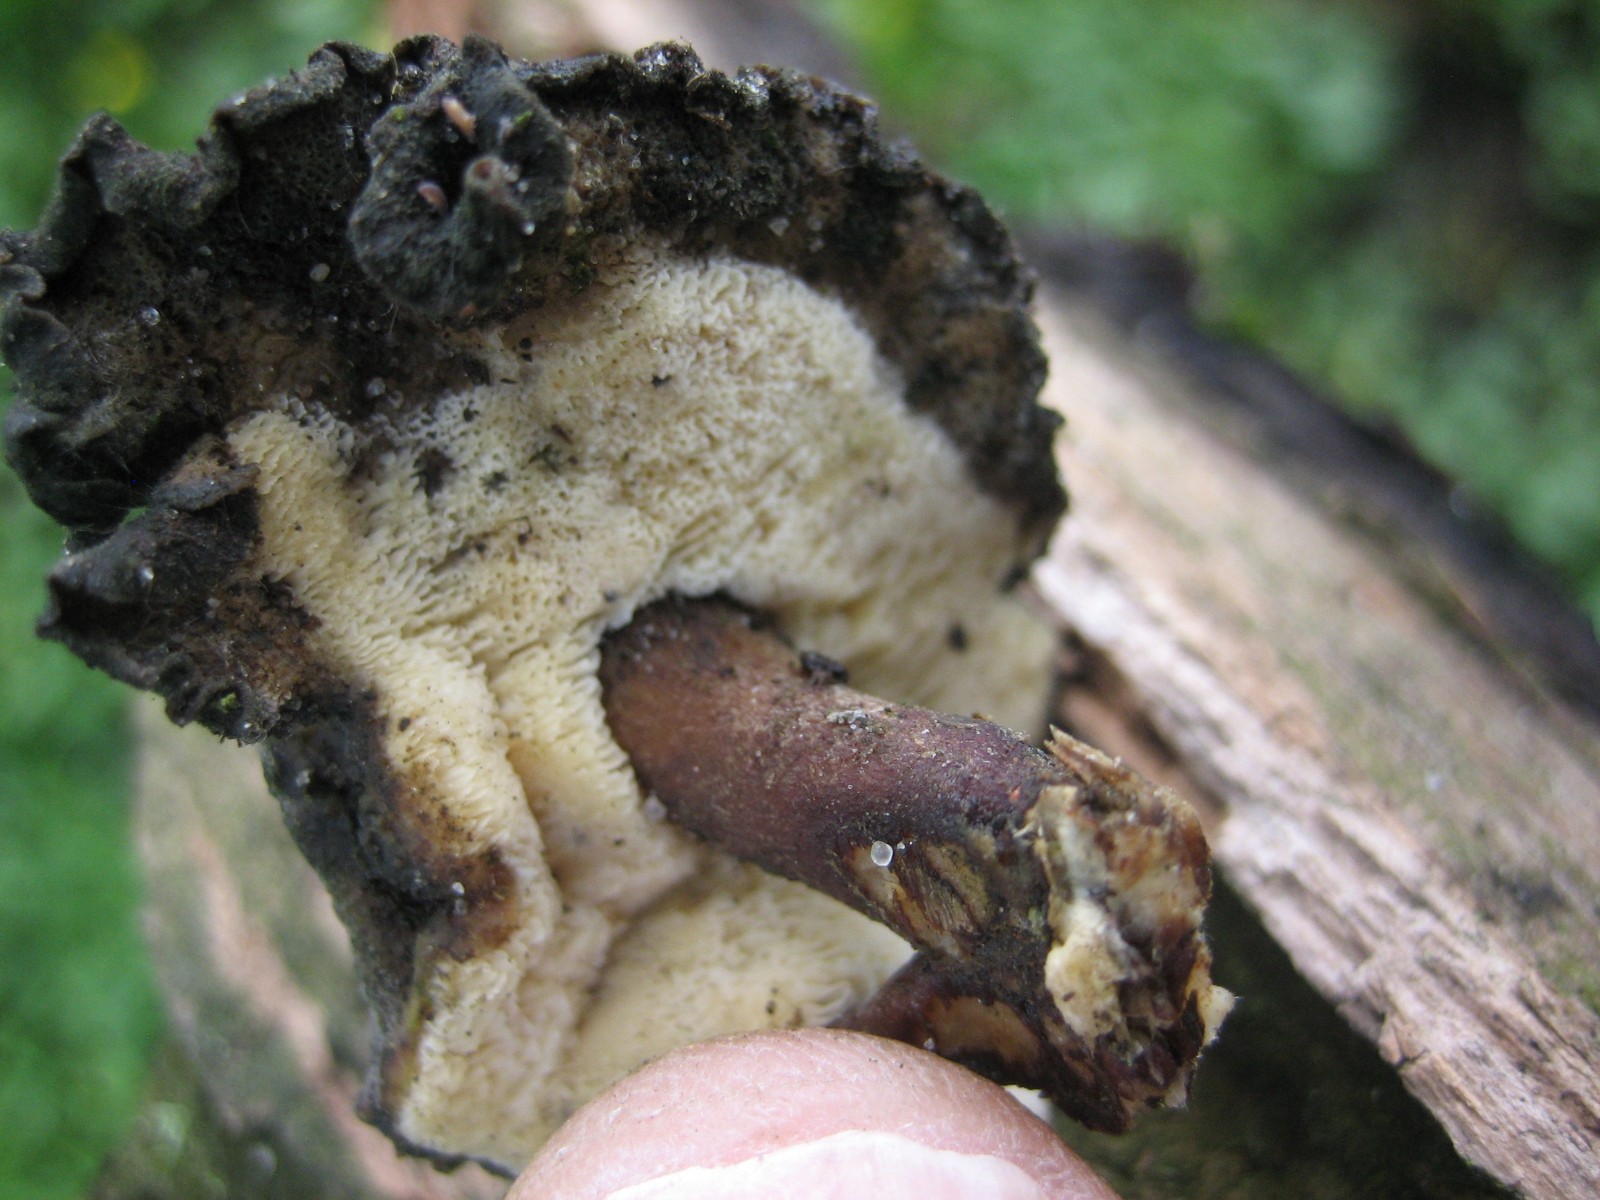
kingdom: Fungi
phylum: Basidiomycota
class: Agaricomycetes
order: Polyporales
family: Polyporaceae
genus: Lentinus
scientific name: Lentinus brumalis
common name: vinter-stilkporesvamp
